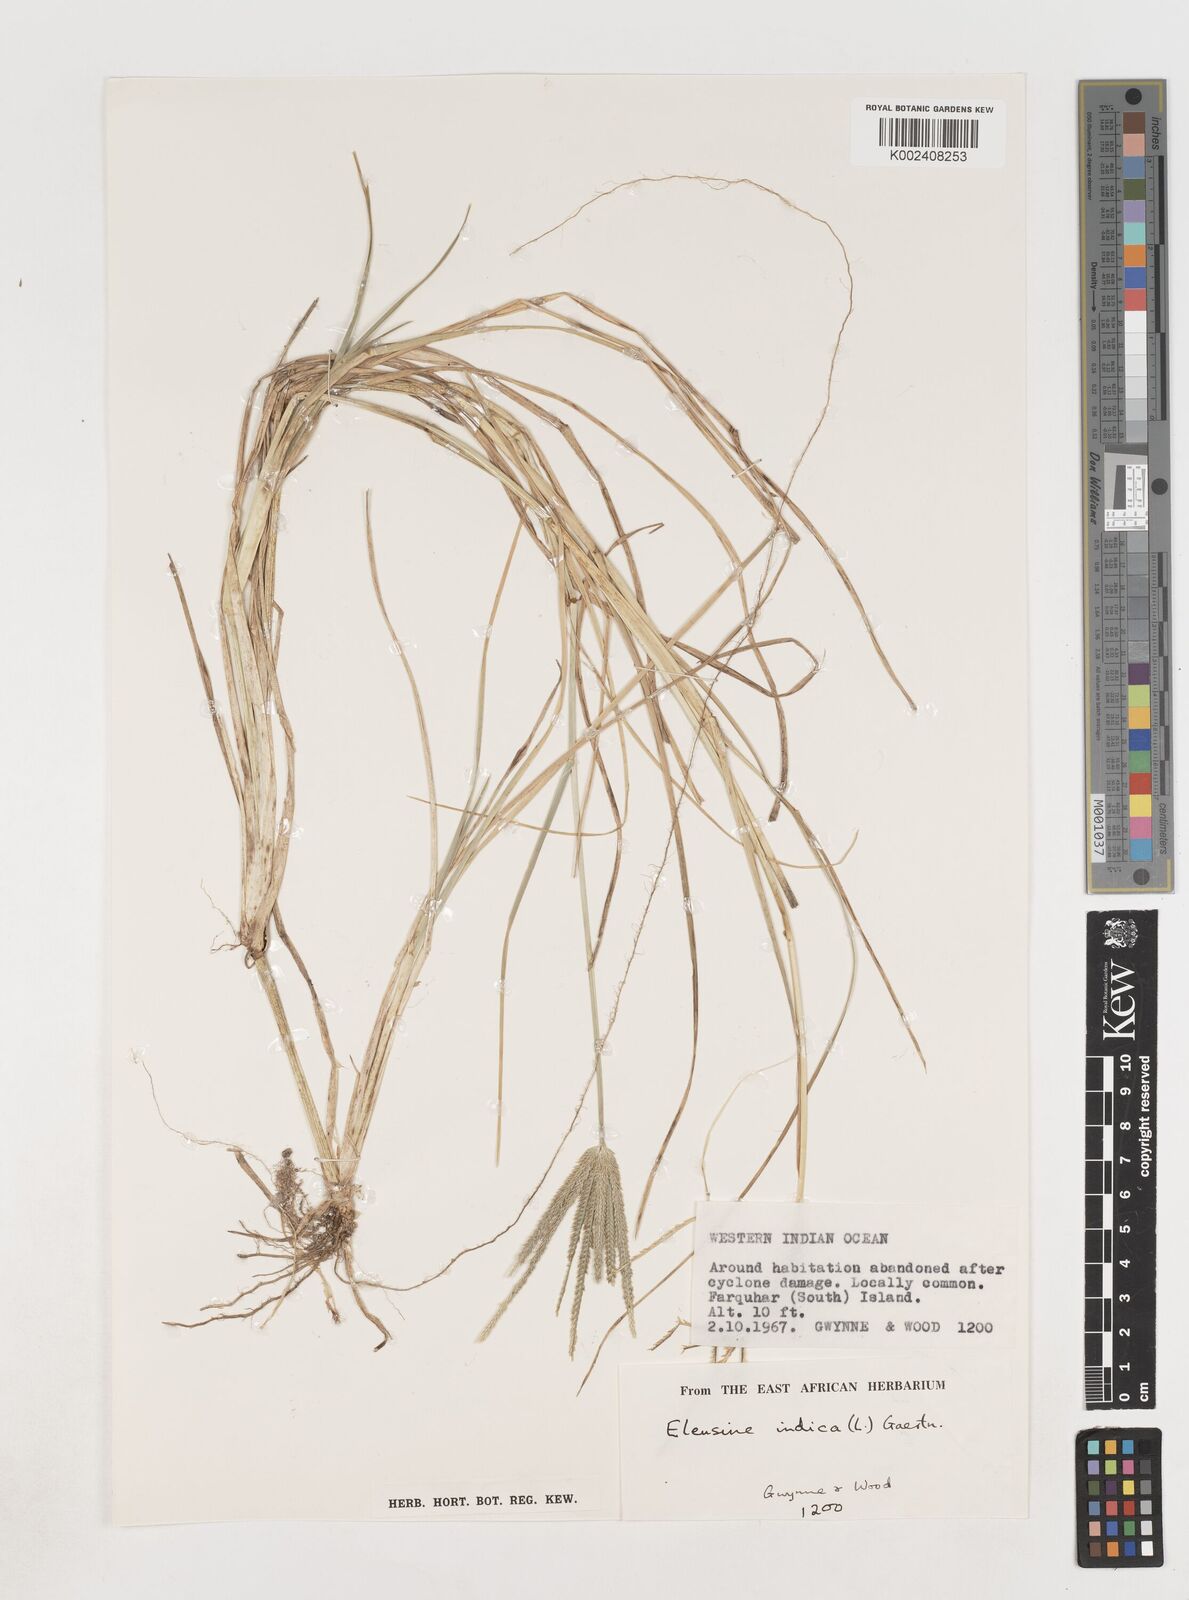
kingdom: Plantae
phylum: Tracheophyta
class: Liliopsida
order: Poales
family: Poaceae
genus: Eleusine
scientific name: Eleusine indica
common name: Yard-grass
